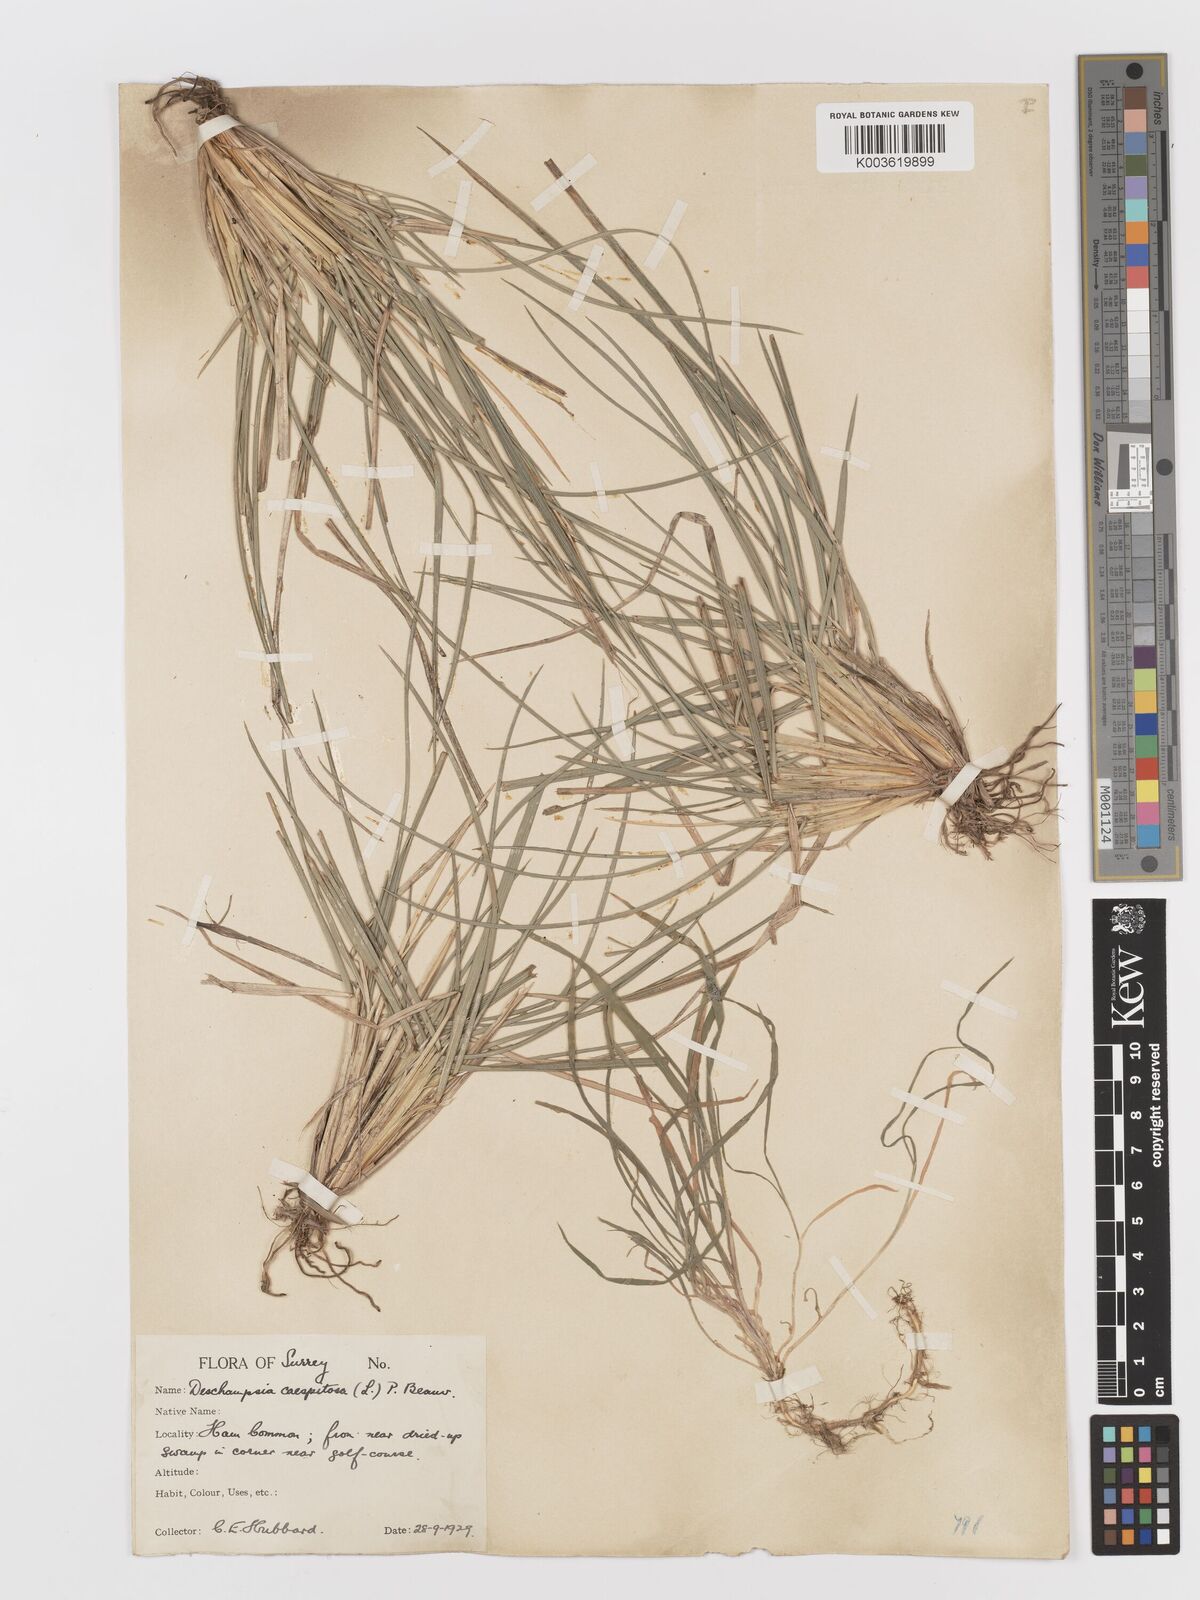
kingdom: Plantae
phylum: Tracheophyta
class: Liliopsida
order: Poales
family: Poaceae
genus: Deschampsia
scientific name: Deschampsia
